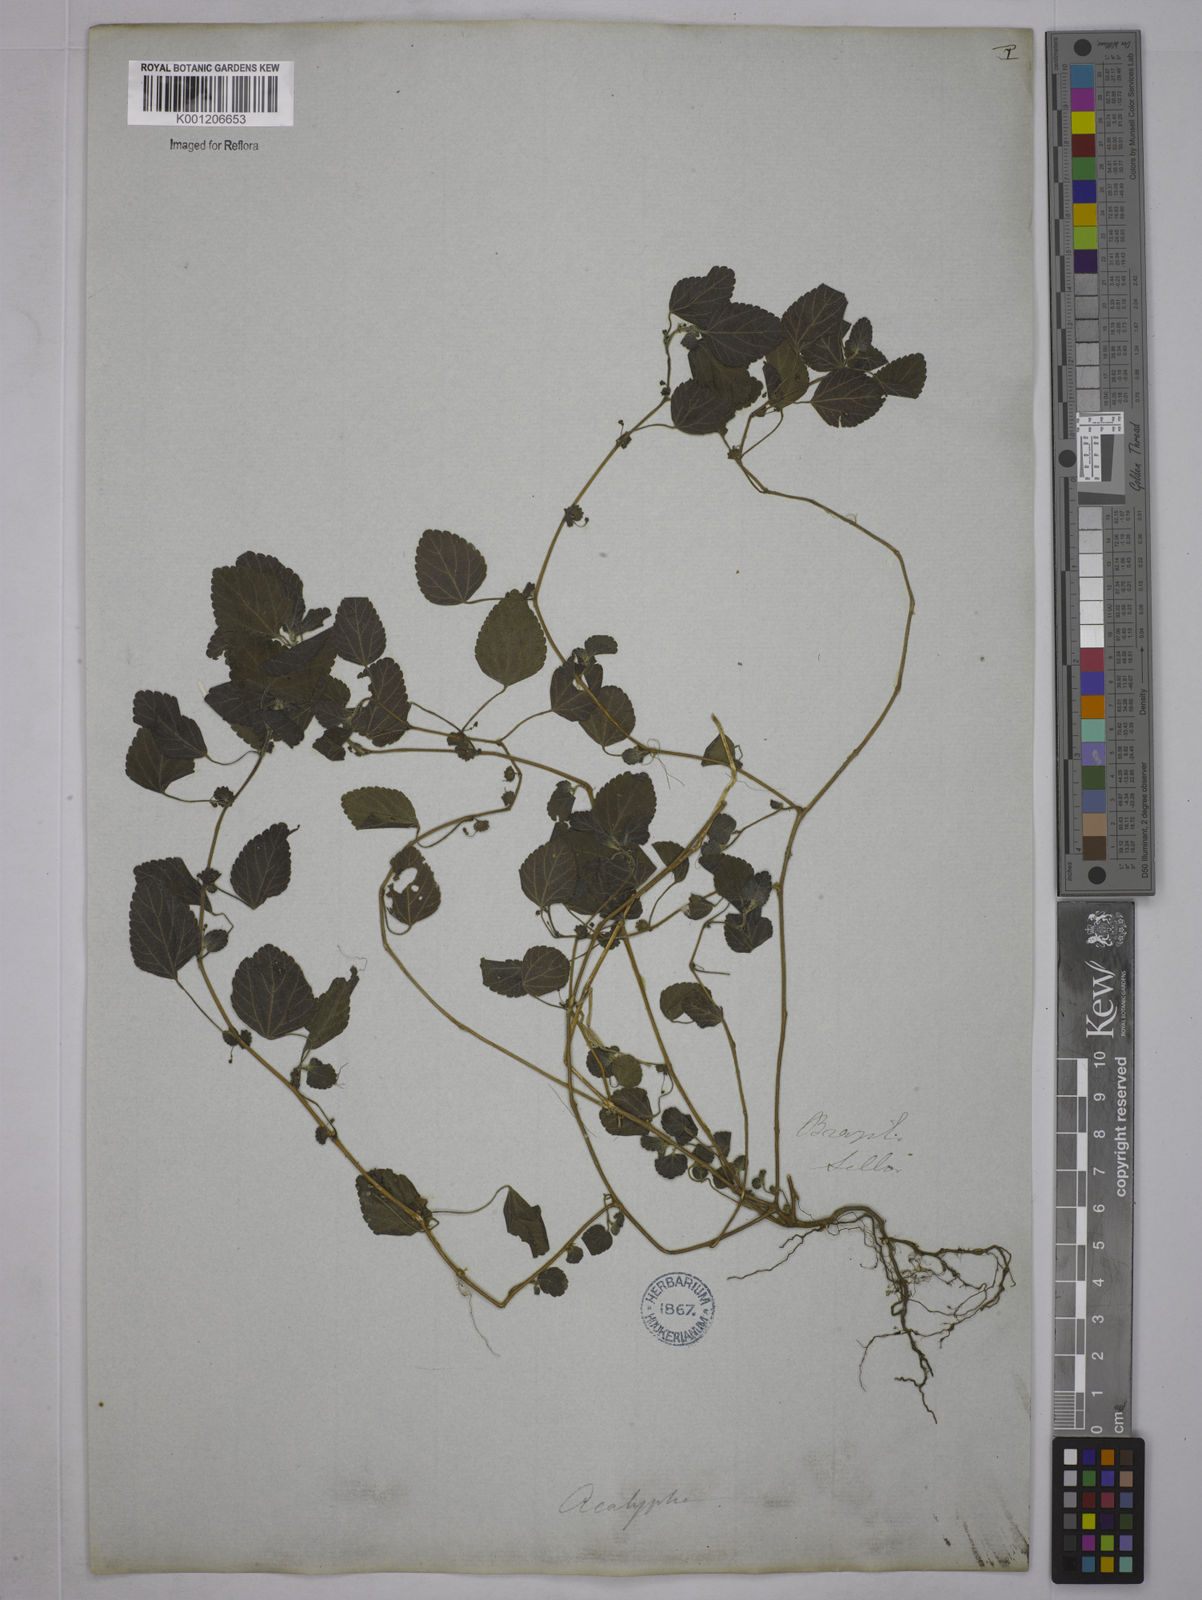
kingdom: Plantae
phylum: Tracheophyta
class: Magnoliopsida
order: Malpighiales
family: Euphorbiaceae
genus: Acalypha
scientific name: Acalypha pruriens
